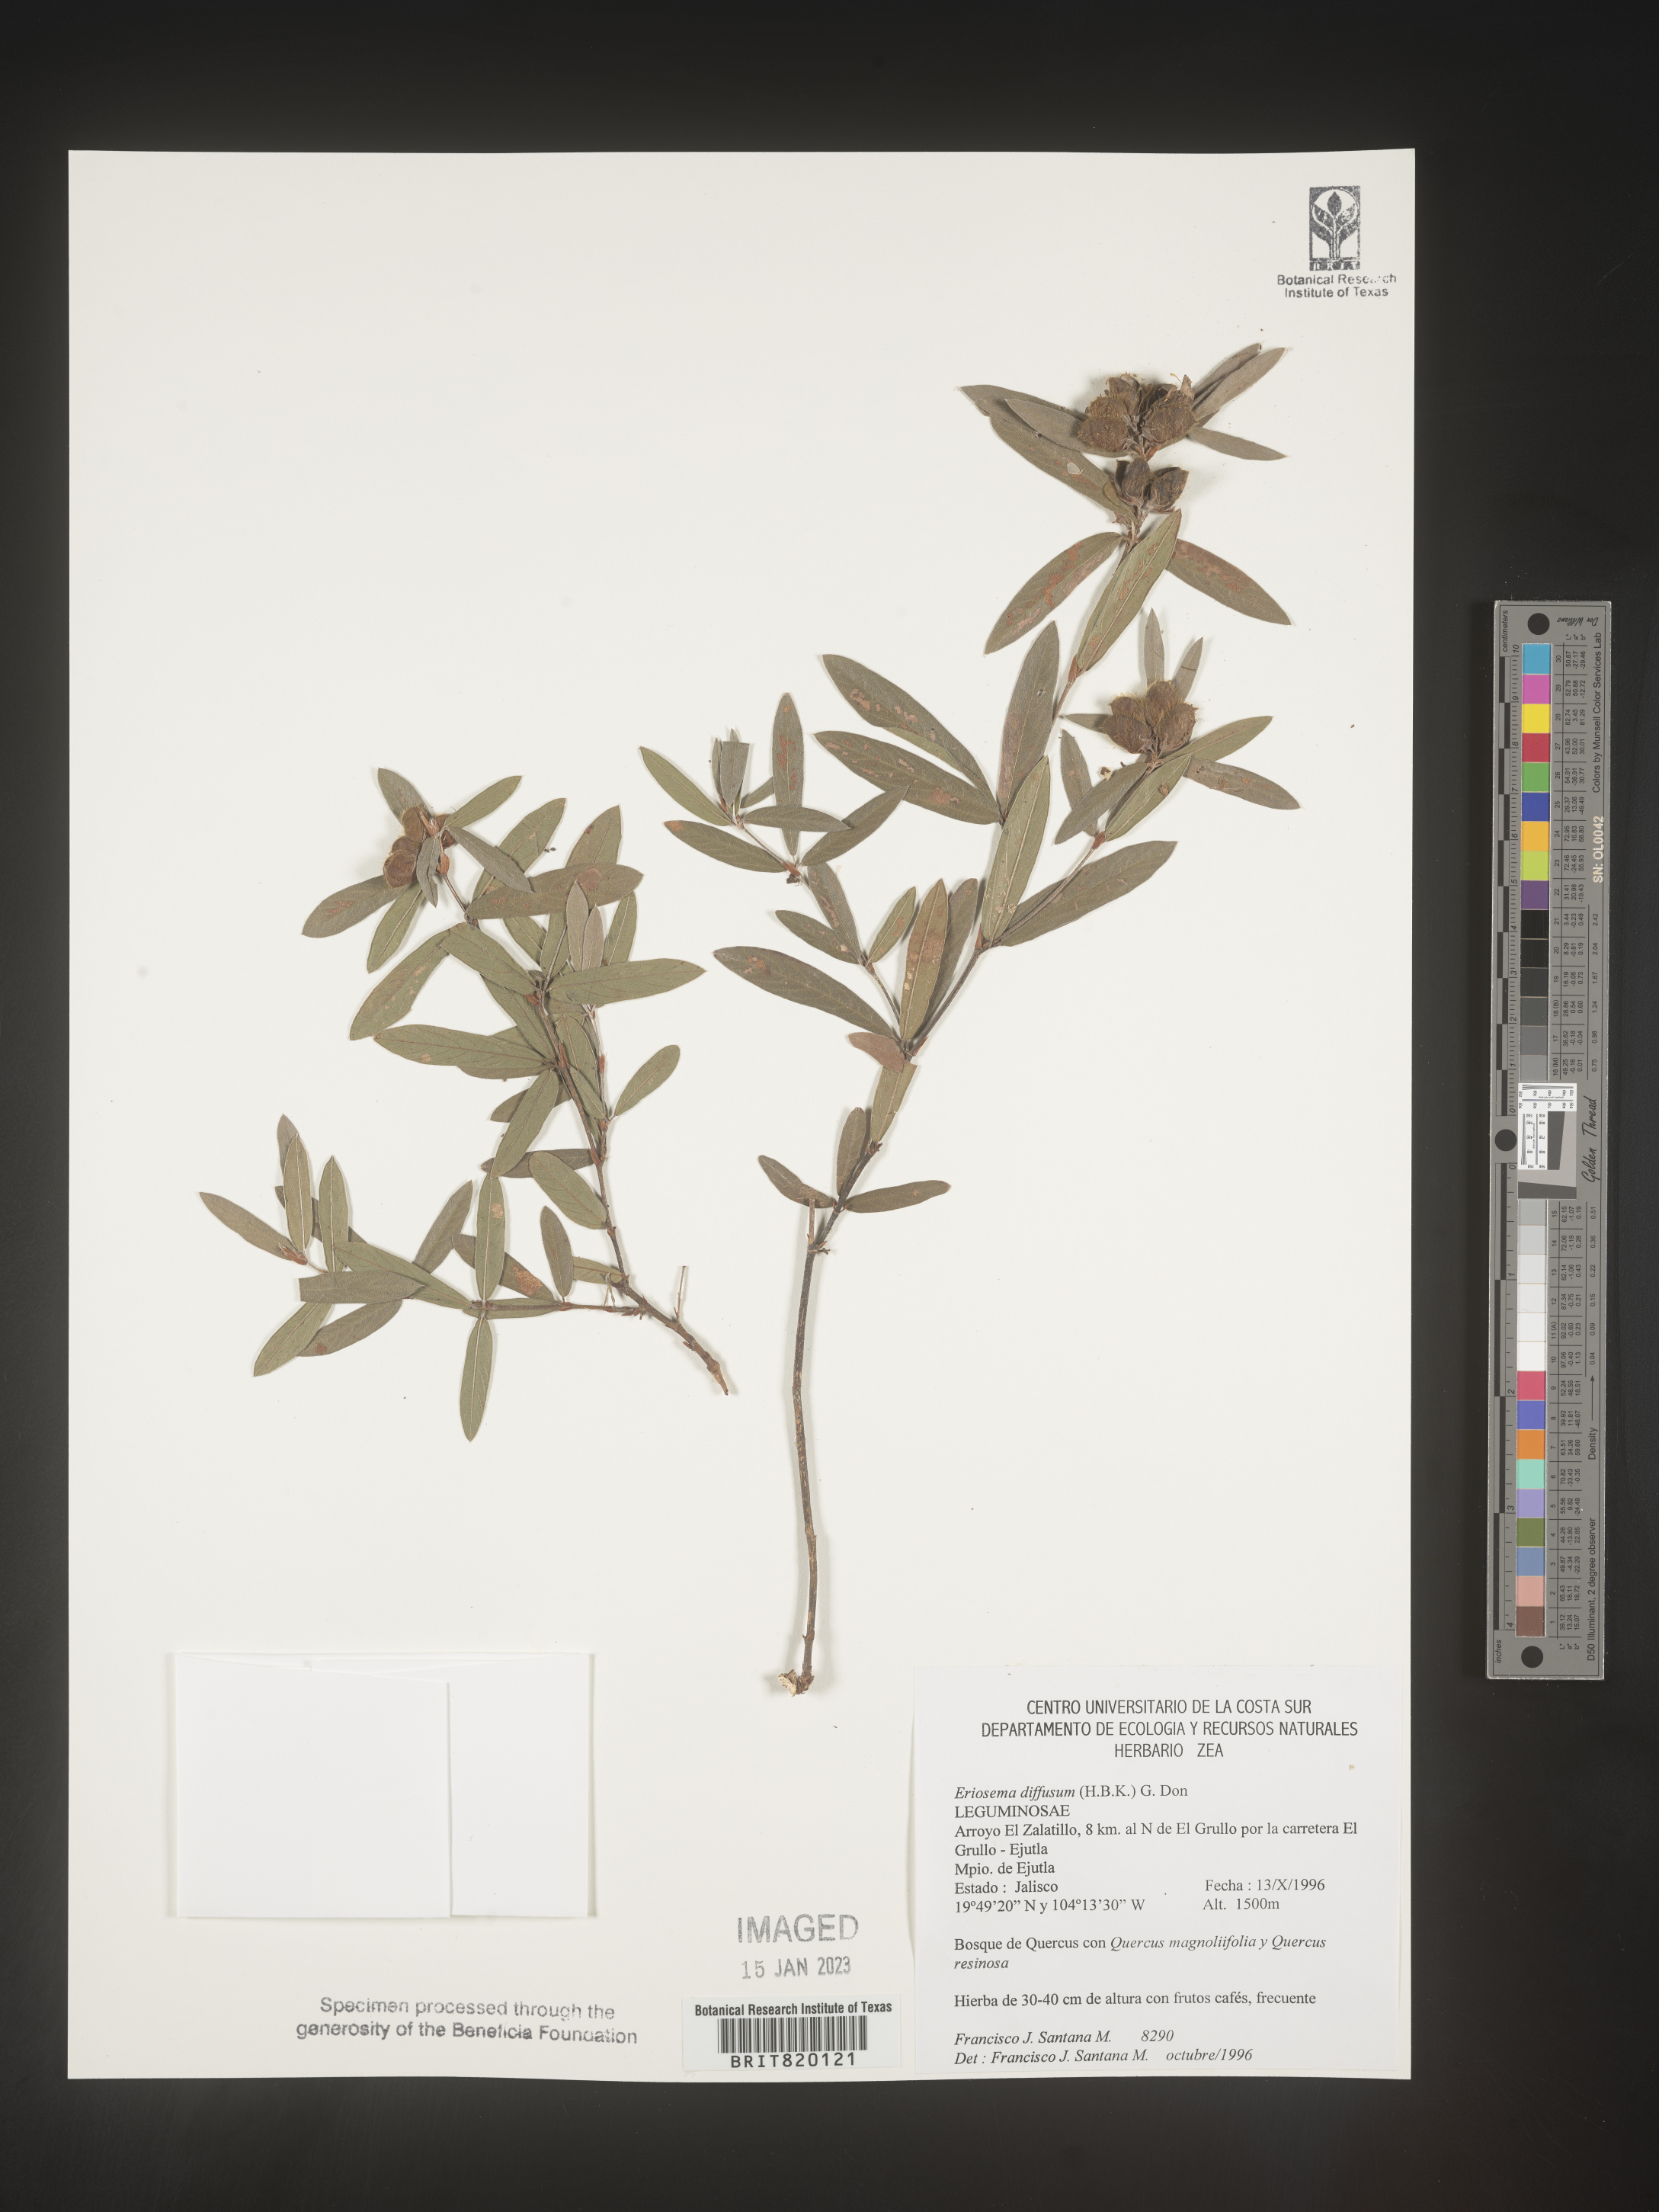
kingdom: Plantae
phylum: Tracheophyta
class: Magnoliopsida
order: Fabales
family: Fabaceae
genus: Eriosema
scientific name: Eriosema
